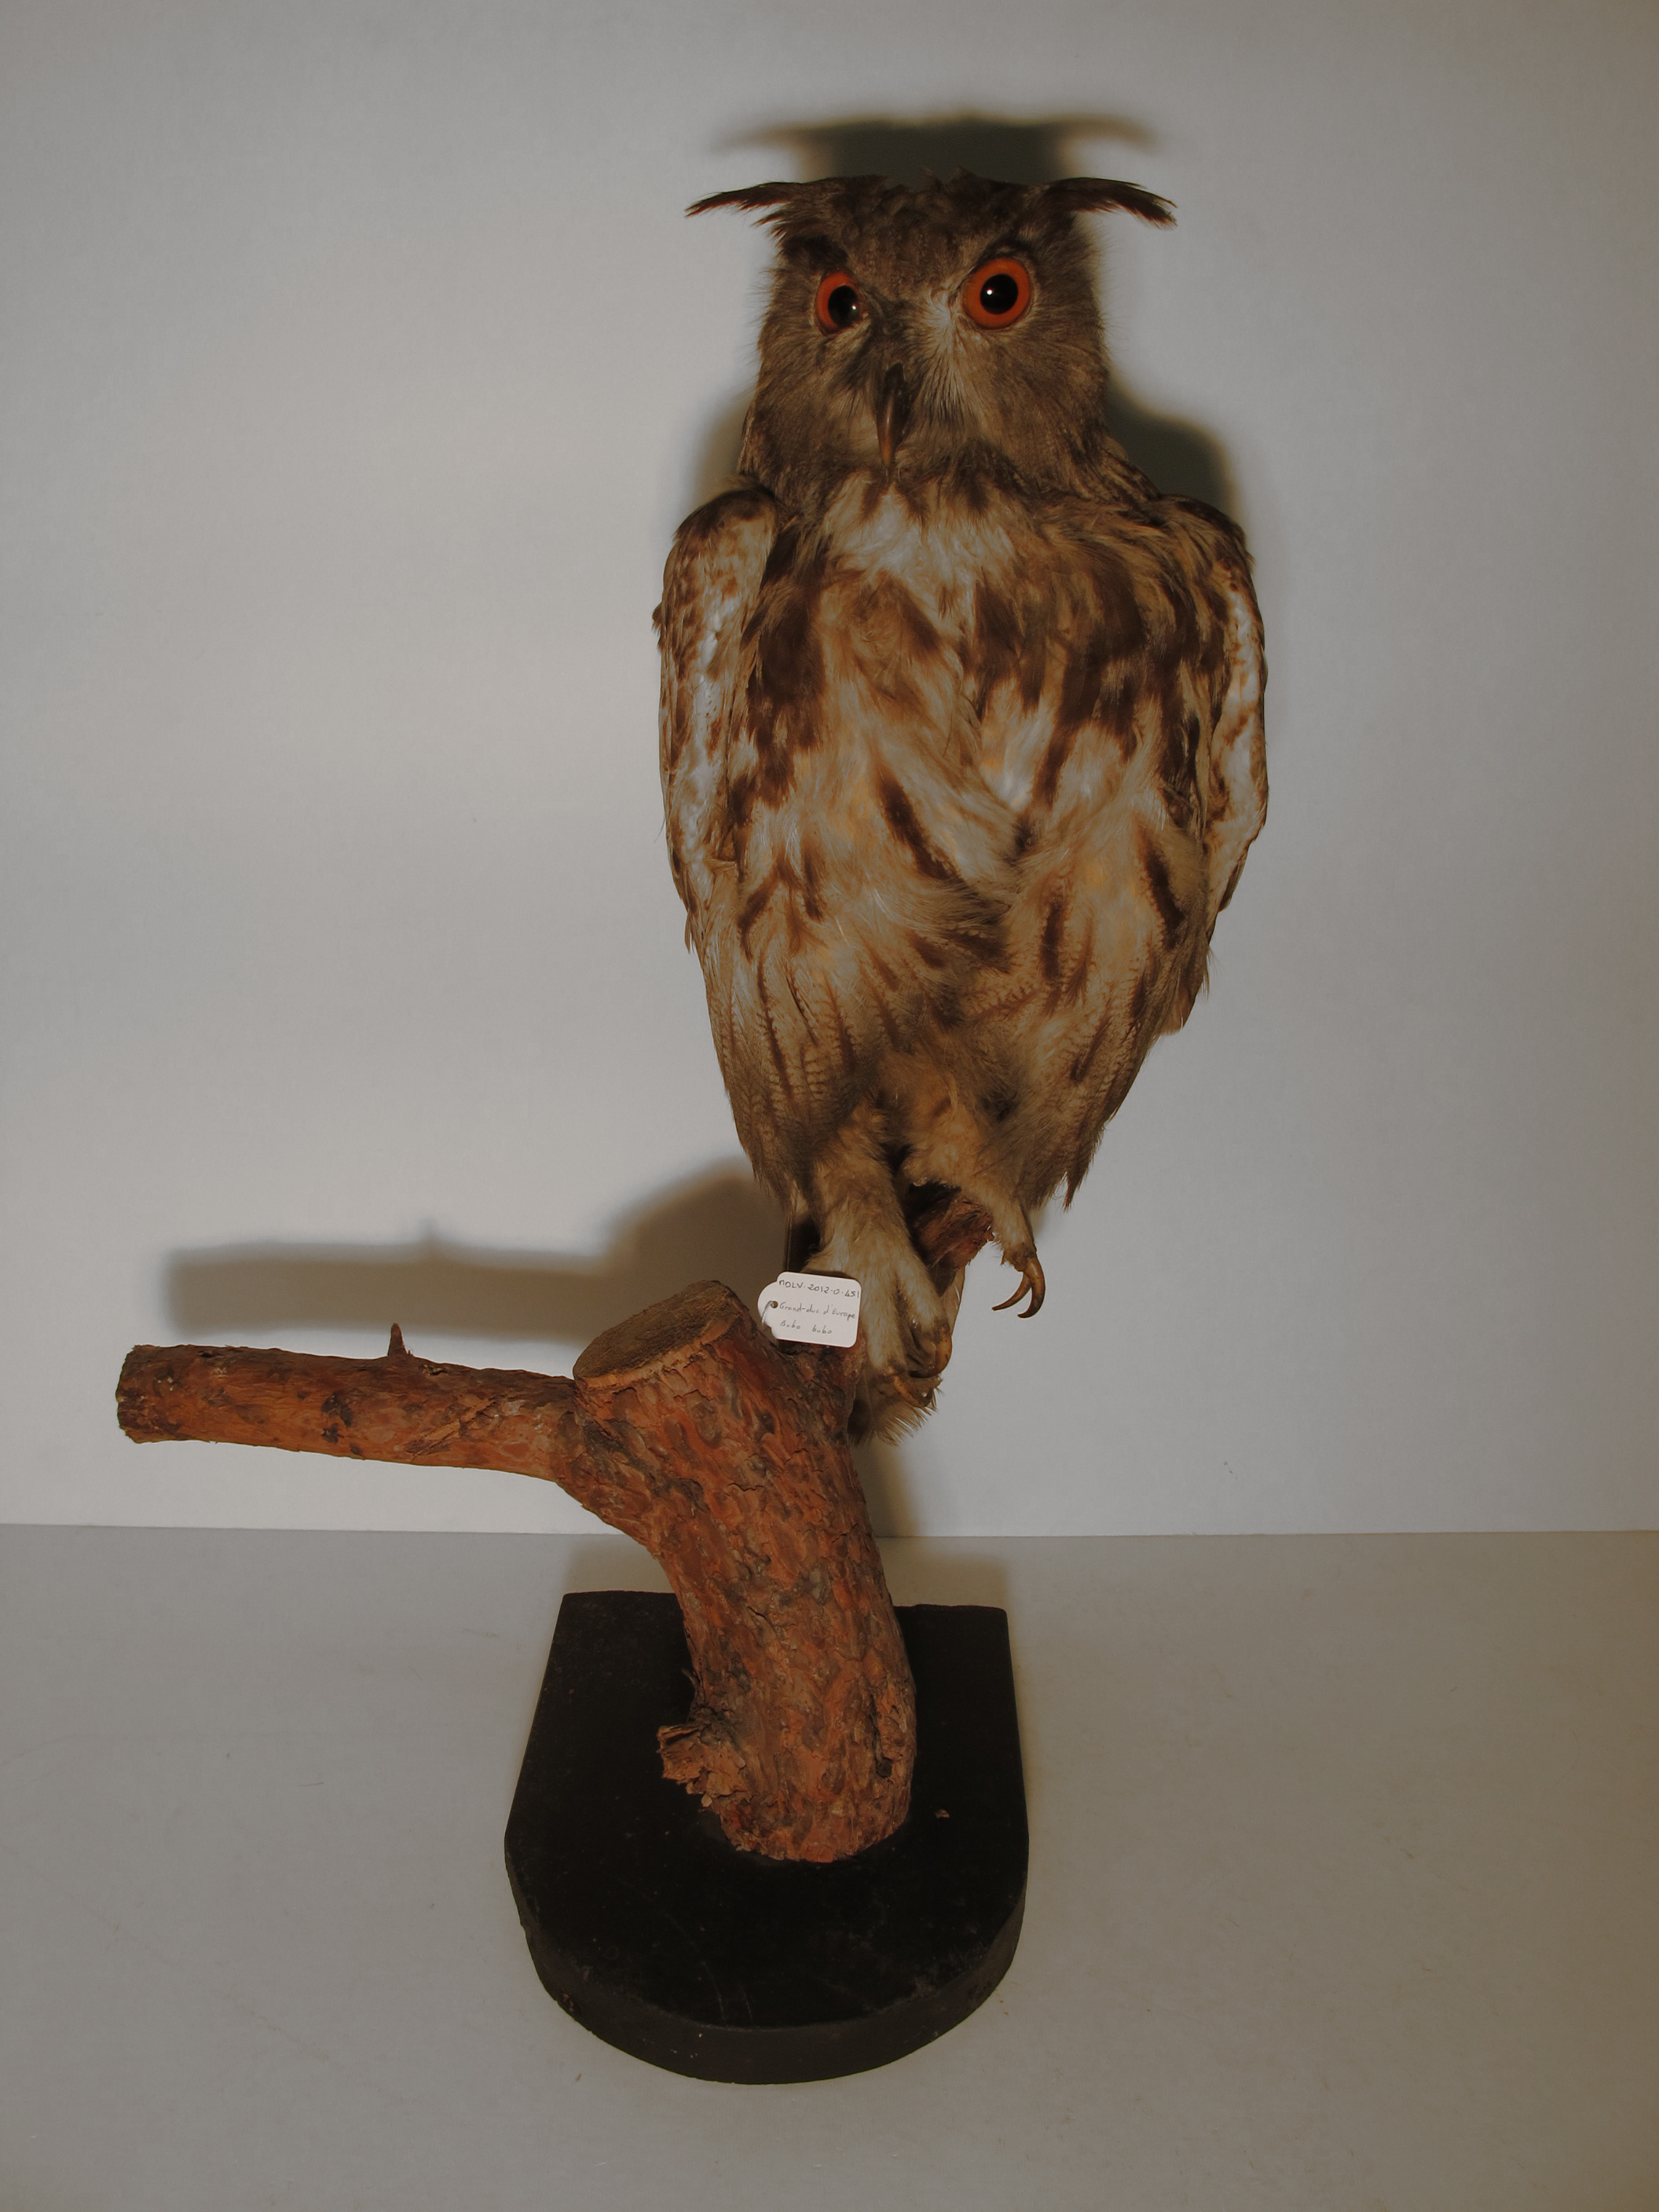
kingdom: Animalia
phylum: Chordata
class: Aves
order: Strigiformes
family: Strigidae
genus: Bubo
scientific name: Bubo bubo
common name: Eurasian Eagle-owl
